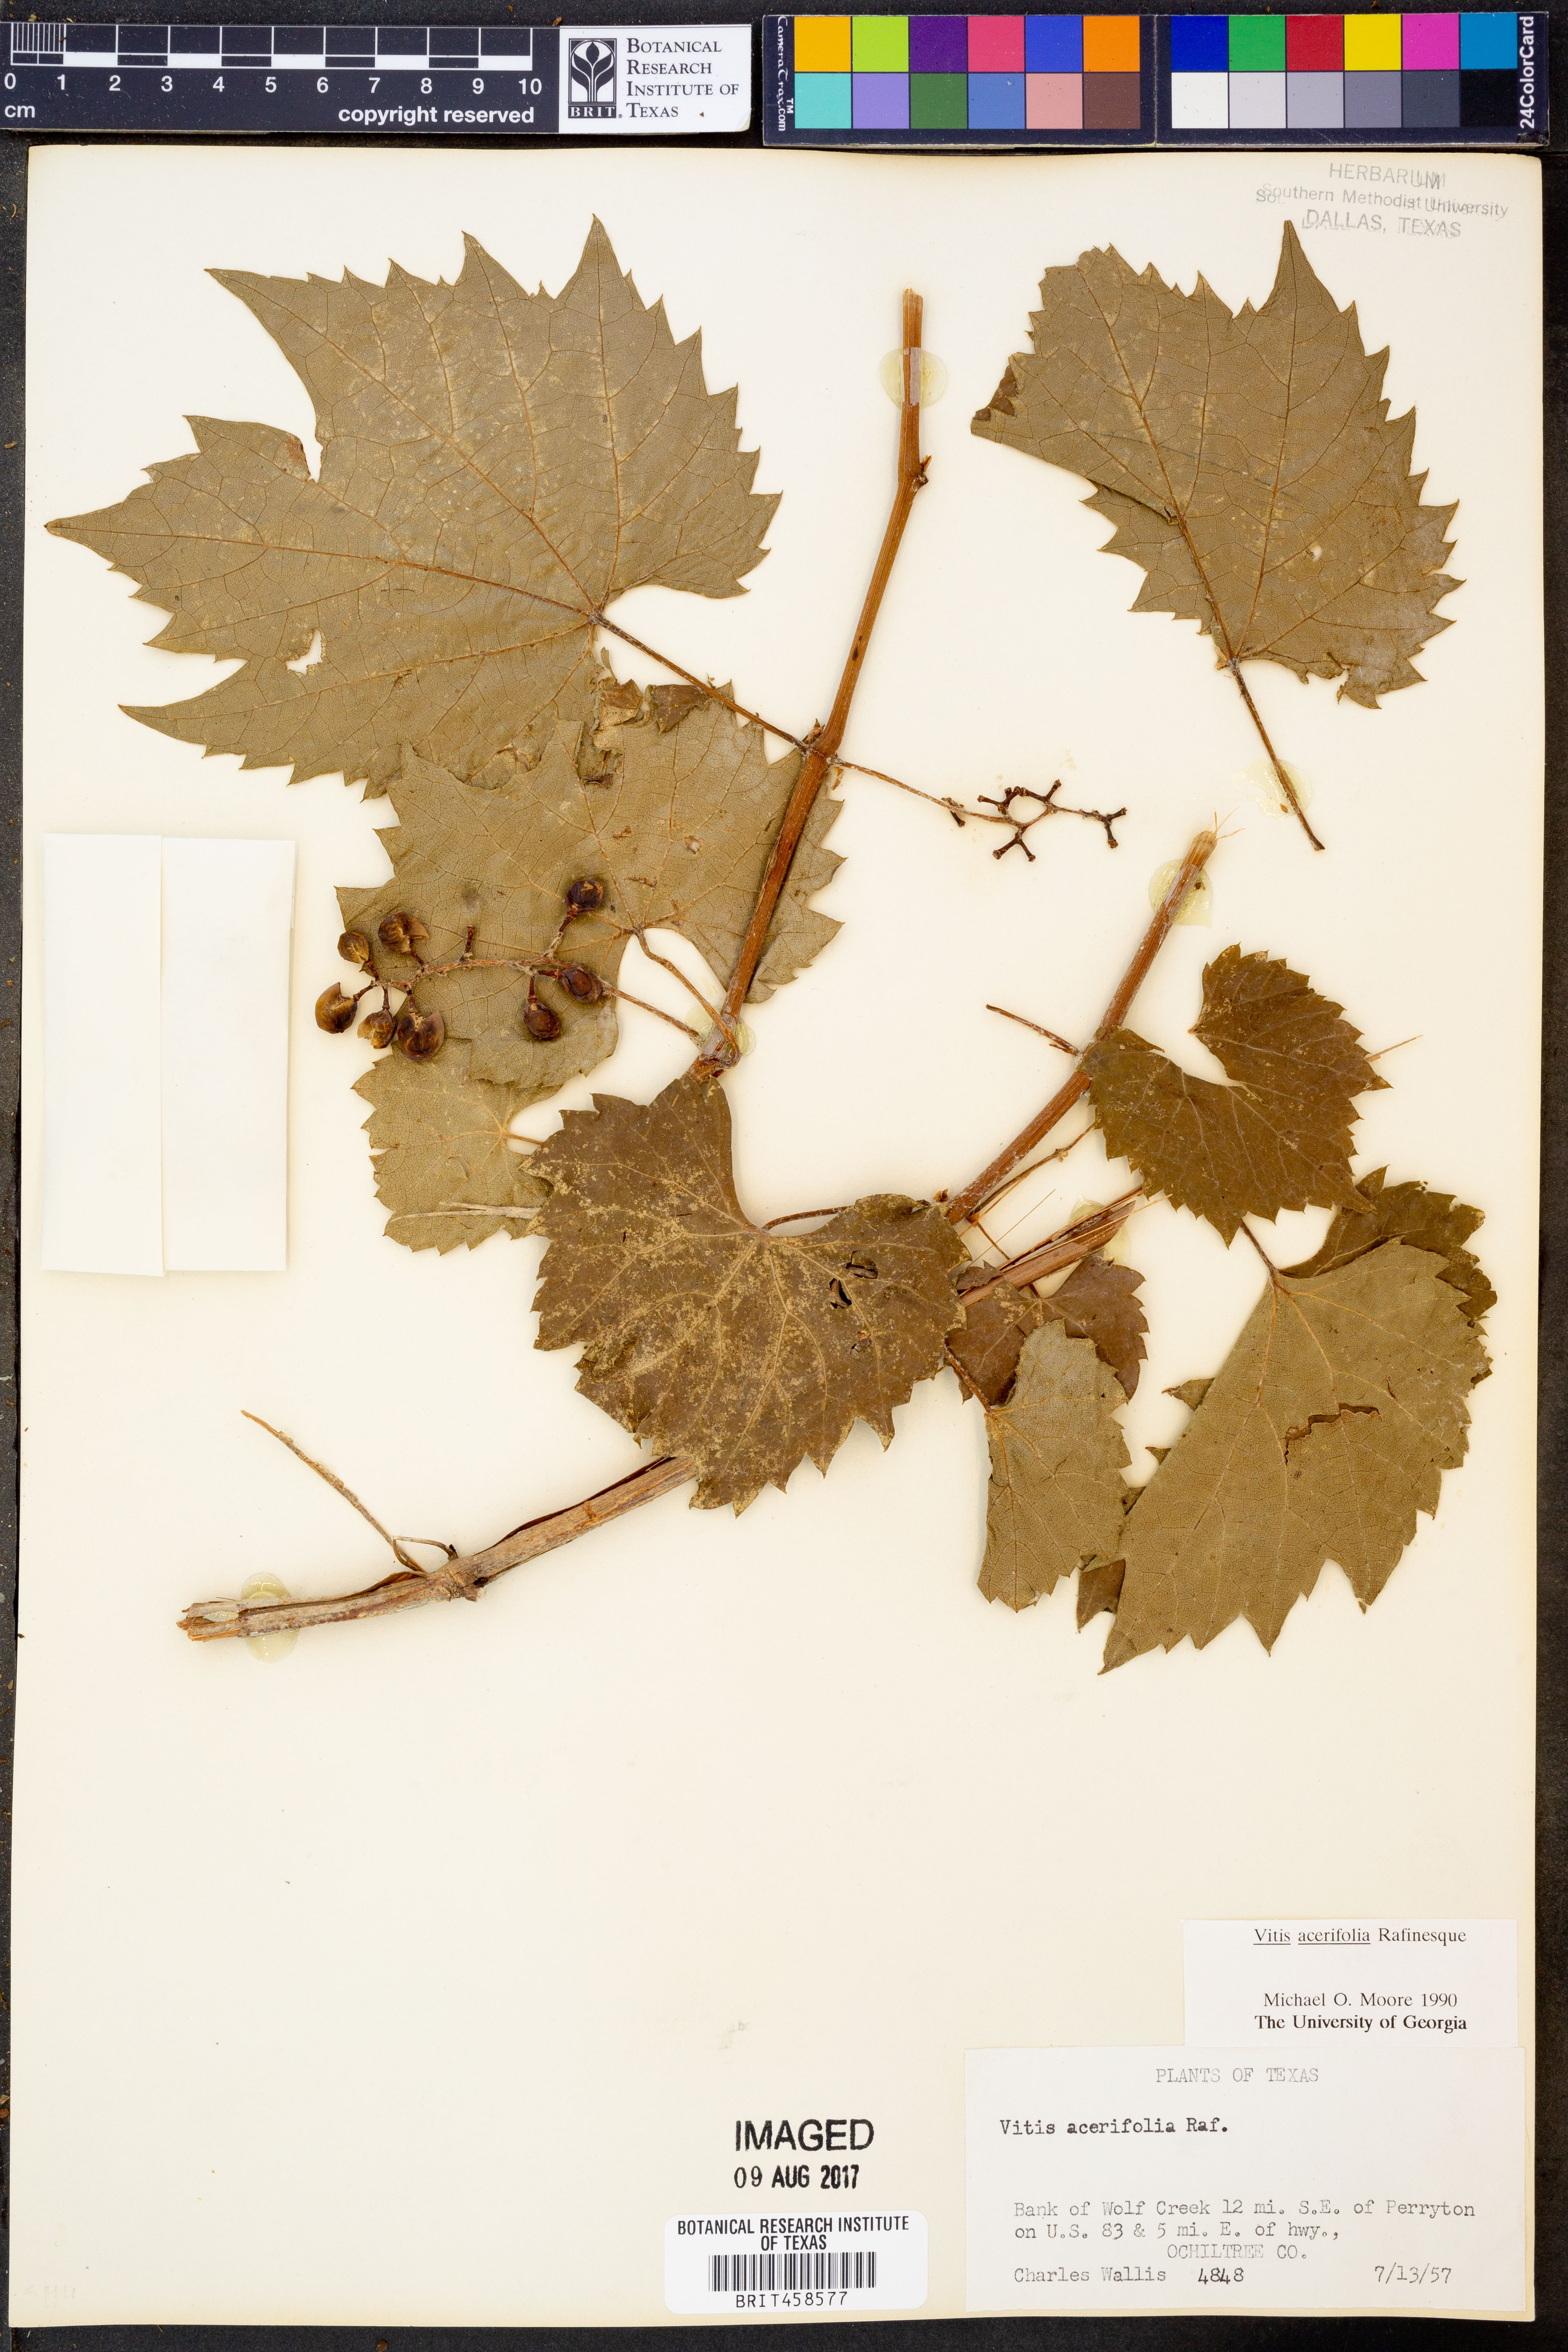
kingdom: Plantae
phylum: Tracheophyta
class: Magnoliopsida
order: Vitales
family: Vitaceae
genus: Vitis
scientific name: Vitis acerifolia
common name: Bush grape
